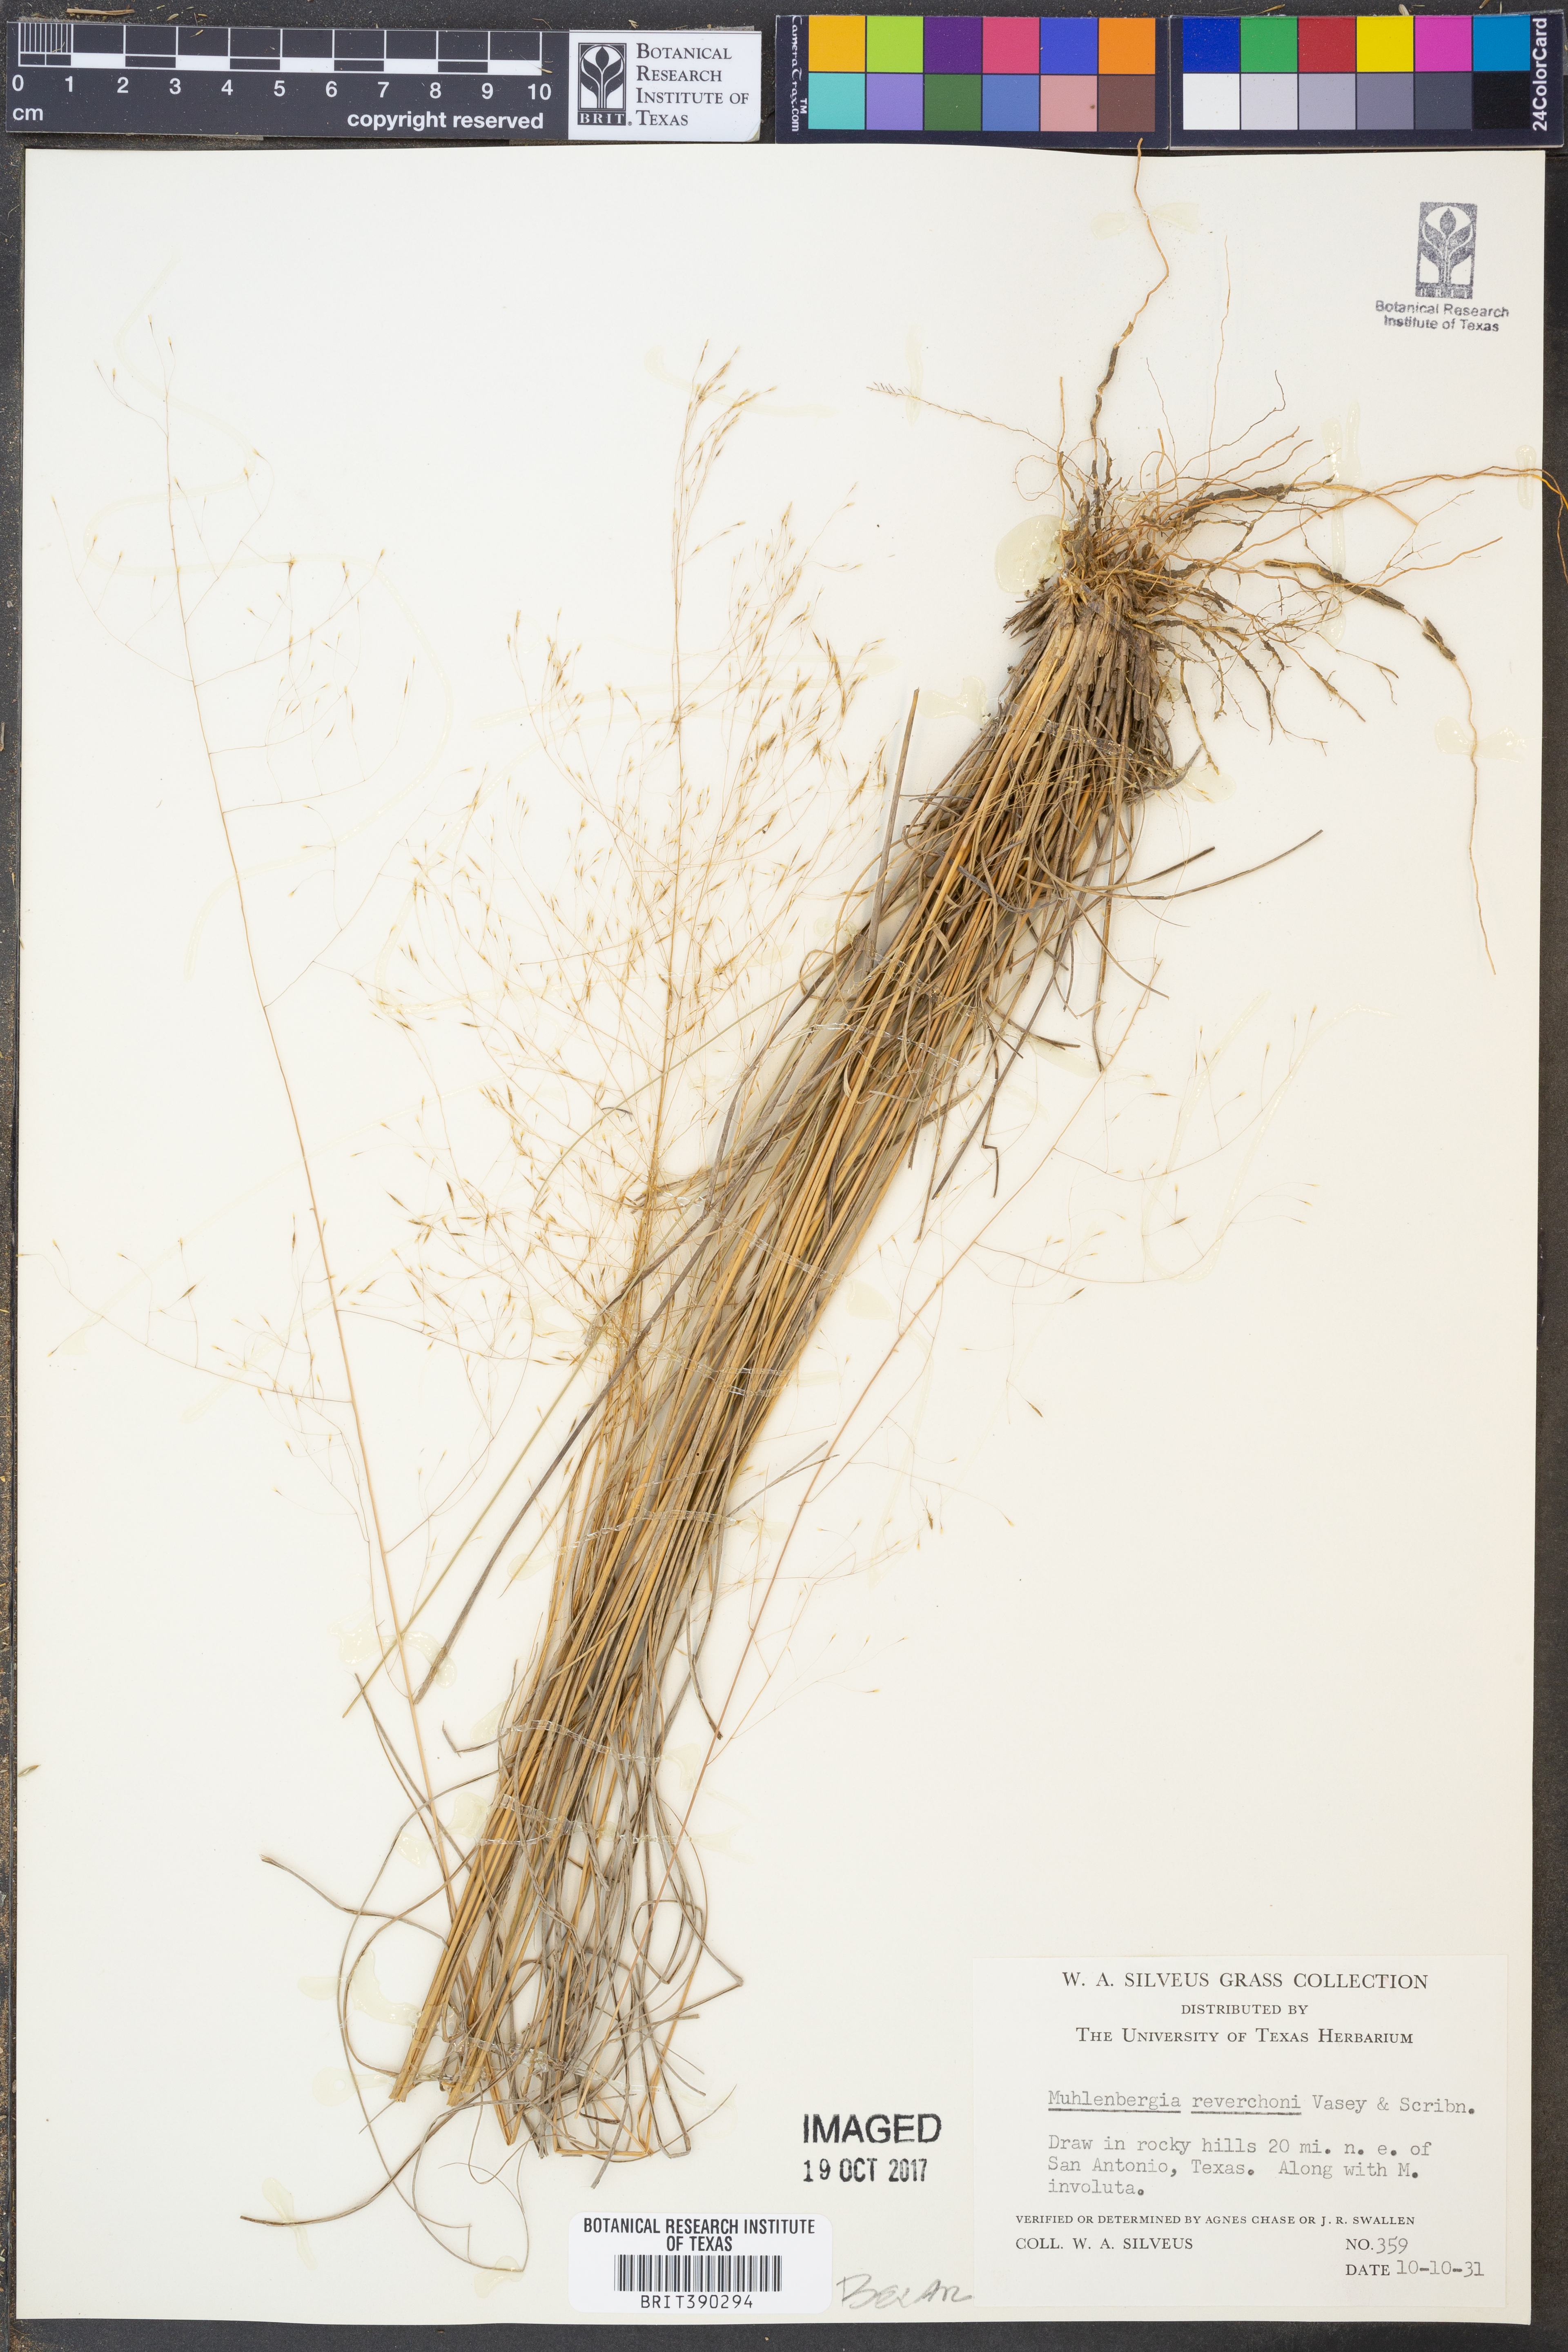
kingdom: Plantae
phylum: Tracheophyta
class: Liliopsida
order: Poales
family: Poaceae
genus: Muhlenbergia
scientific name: Muhlenbergia reverchonii
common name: Seep muhly
